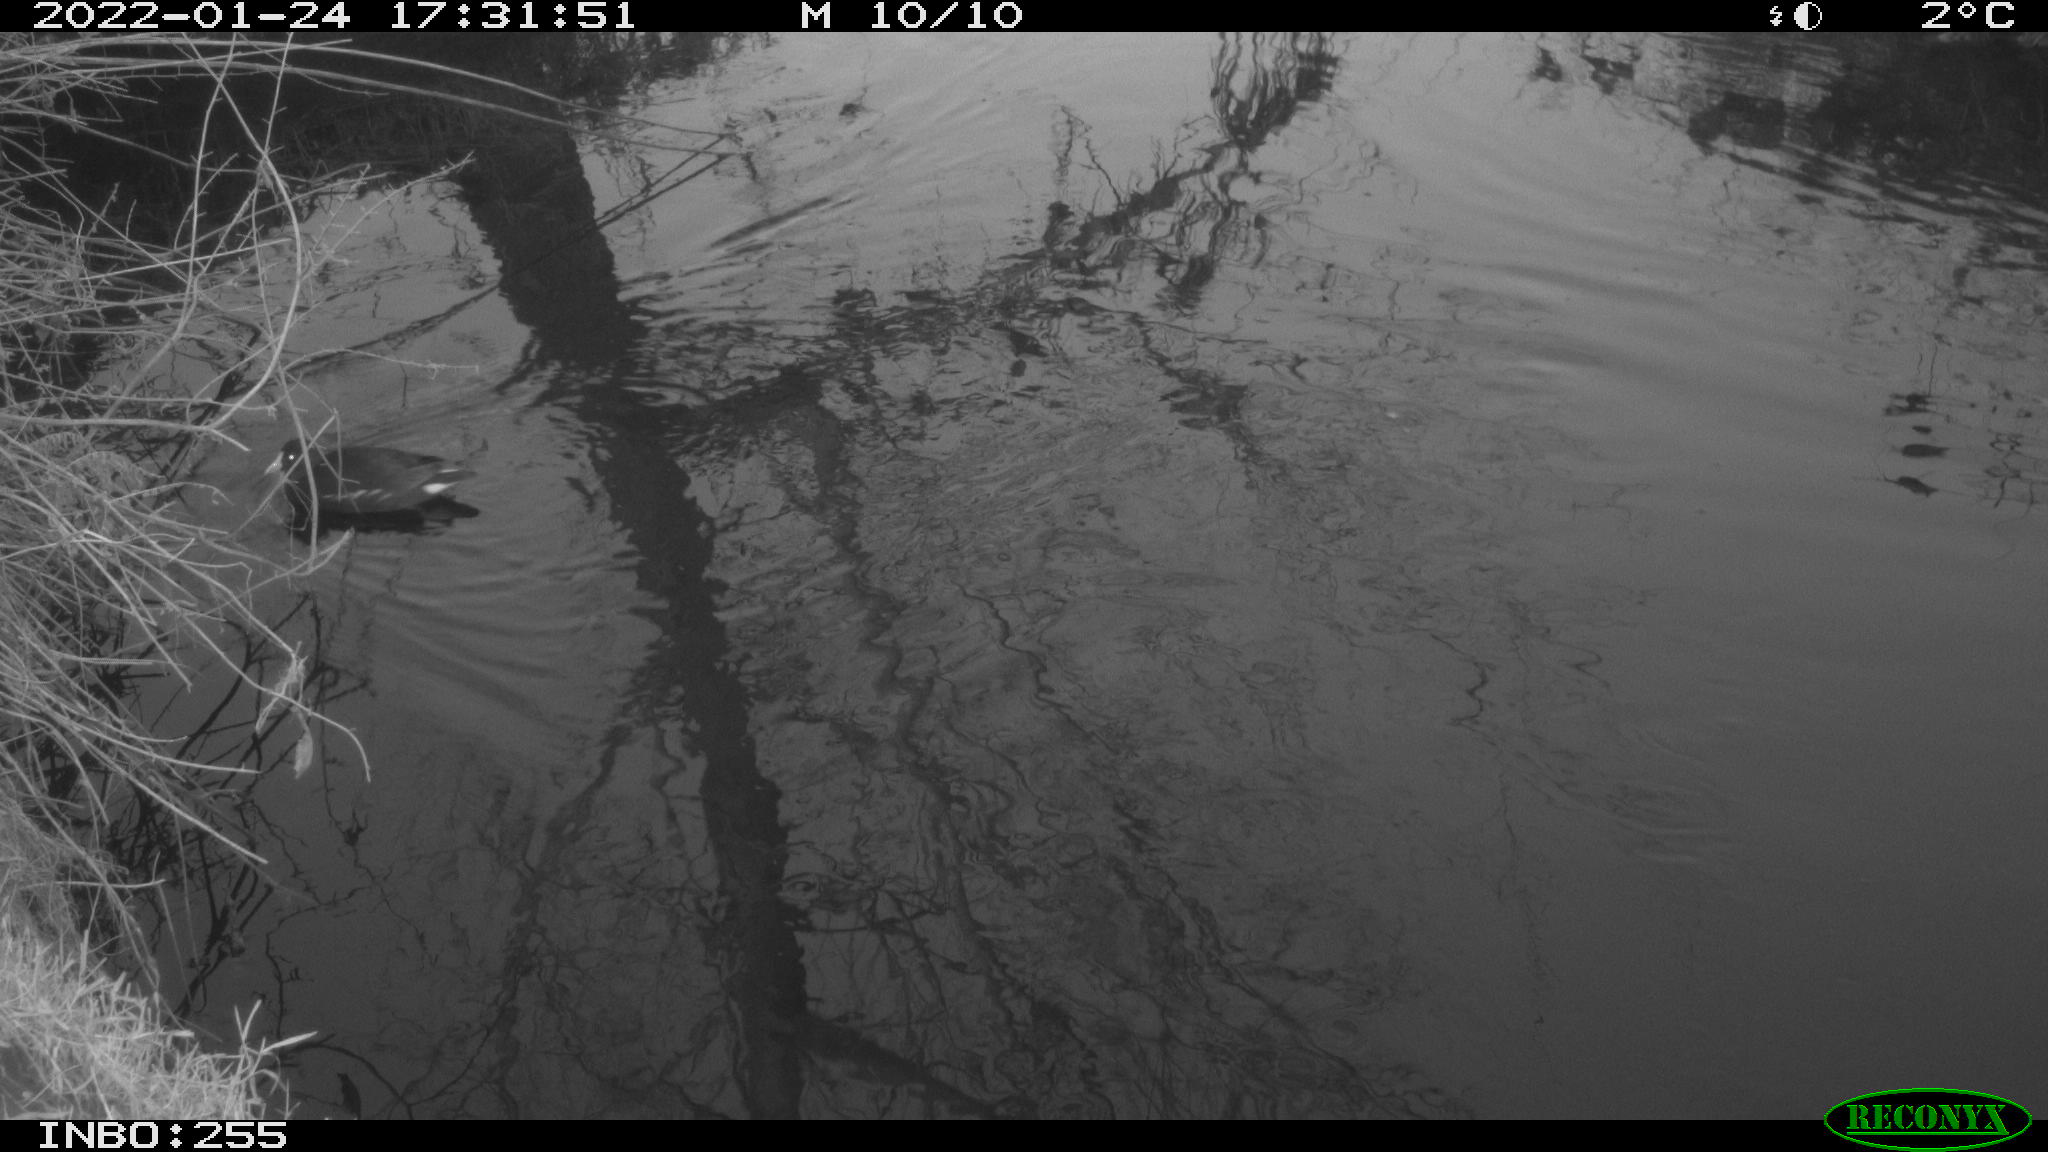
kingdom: Animalia
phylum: Chordata
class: Aves
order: Gruiformes
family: Rallidae
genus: Gallinula
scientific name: Gallinula chloropus
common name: Common moorhen
